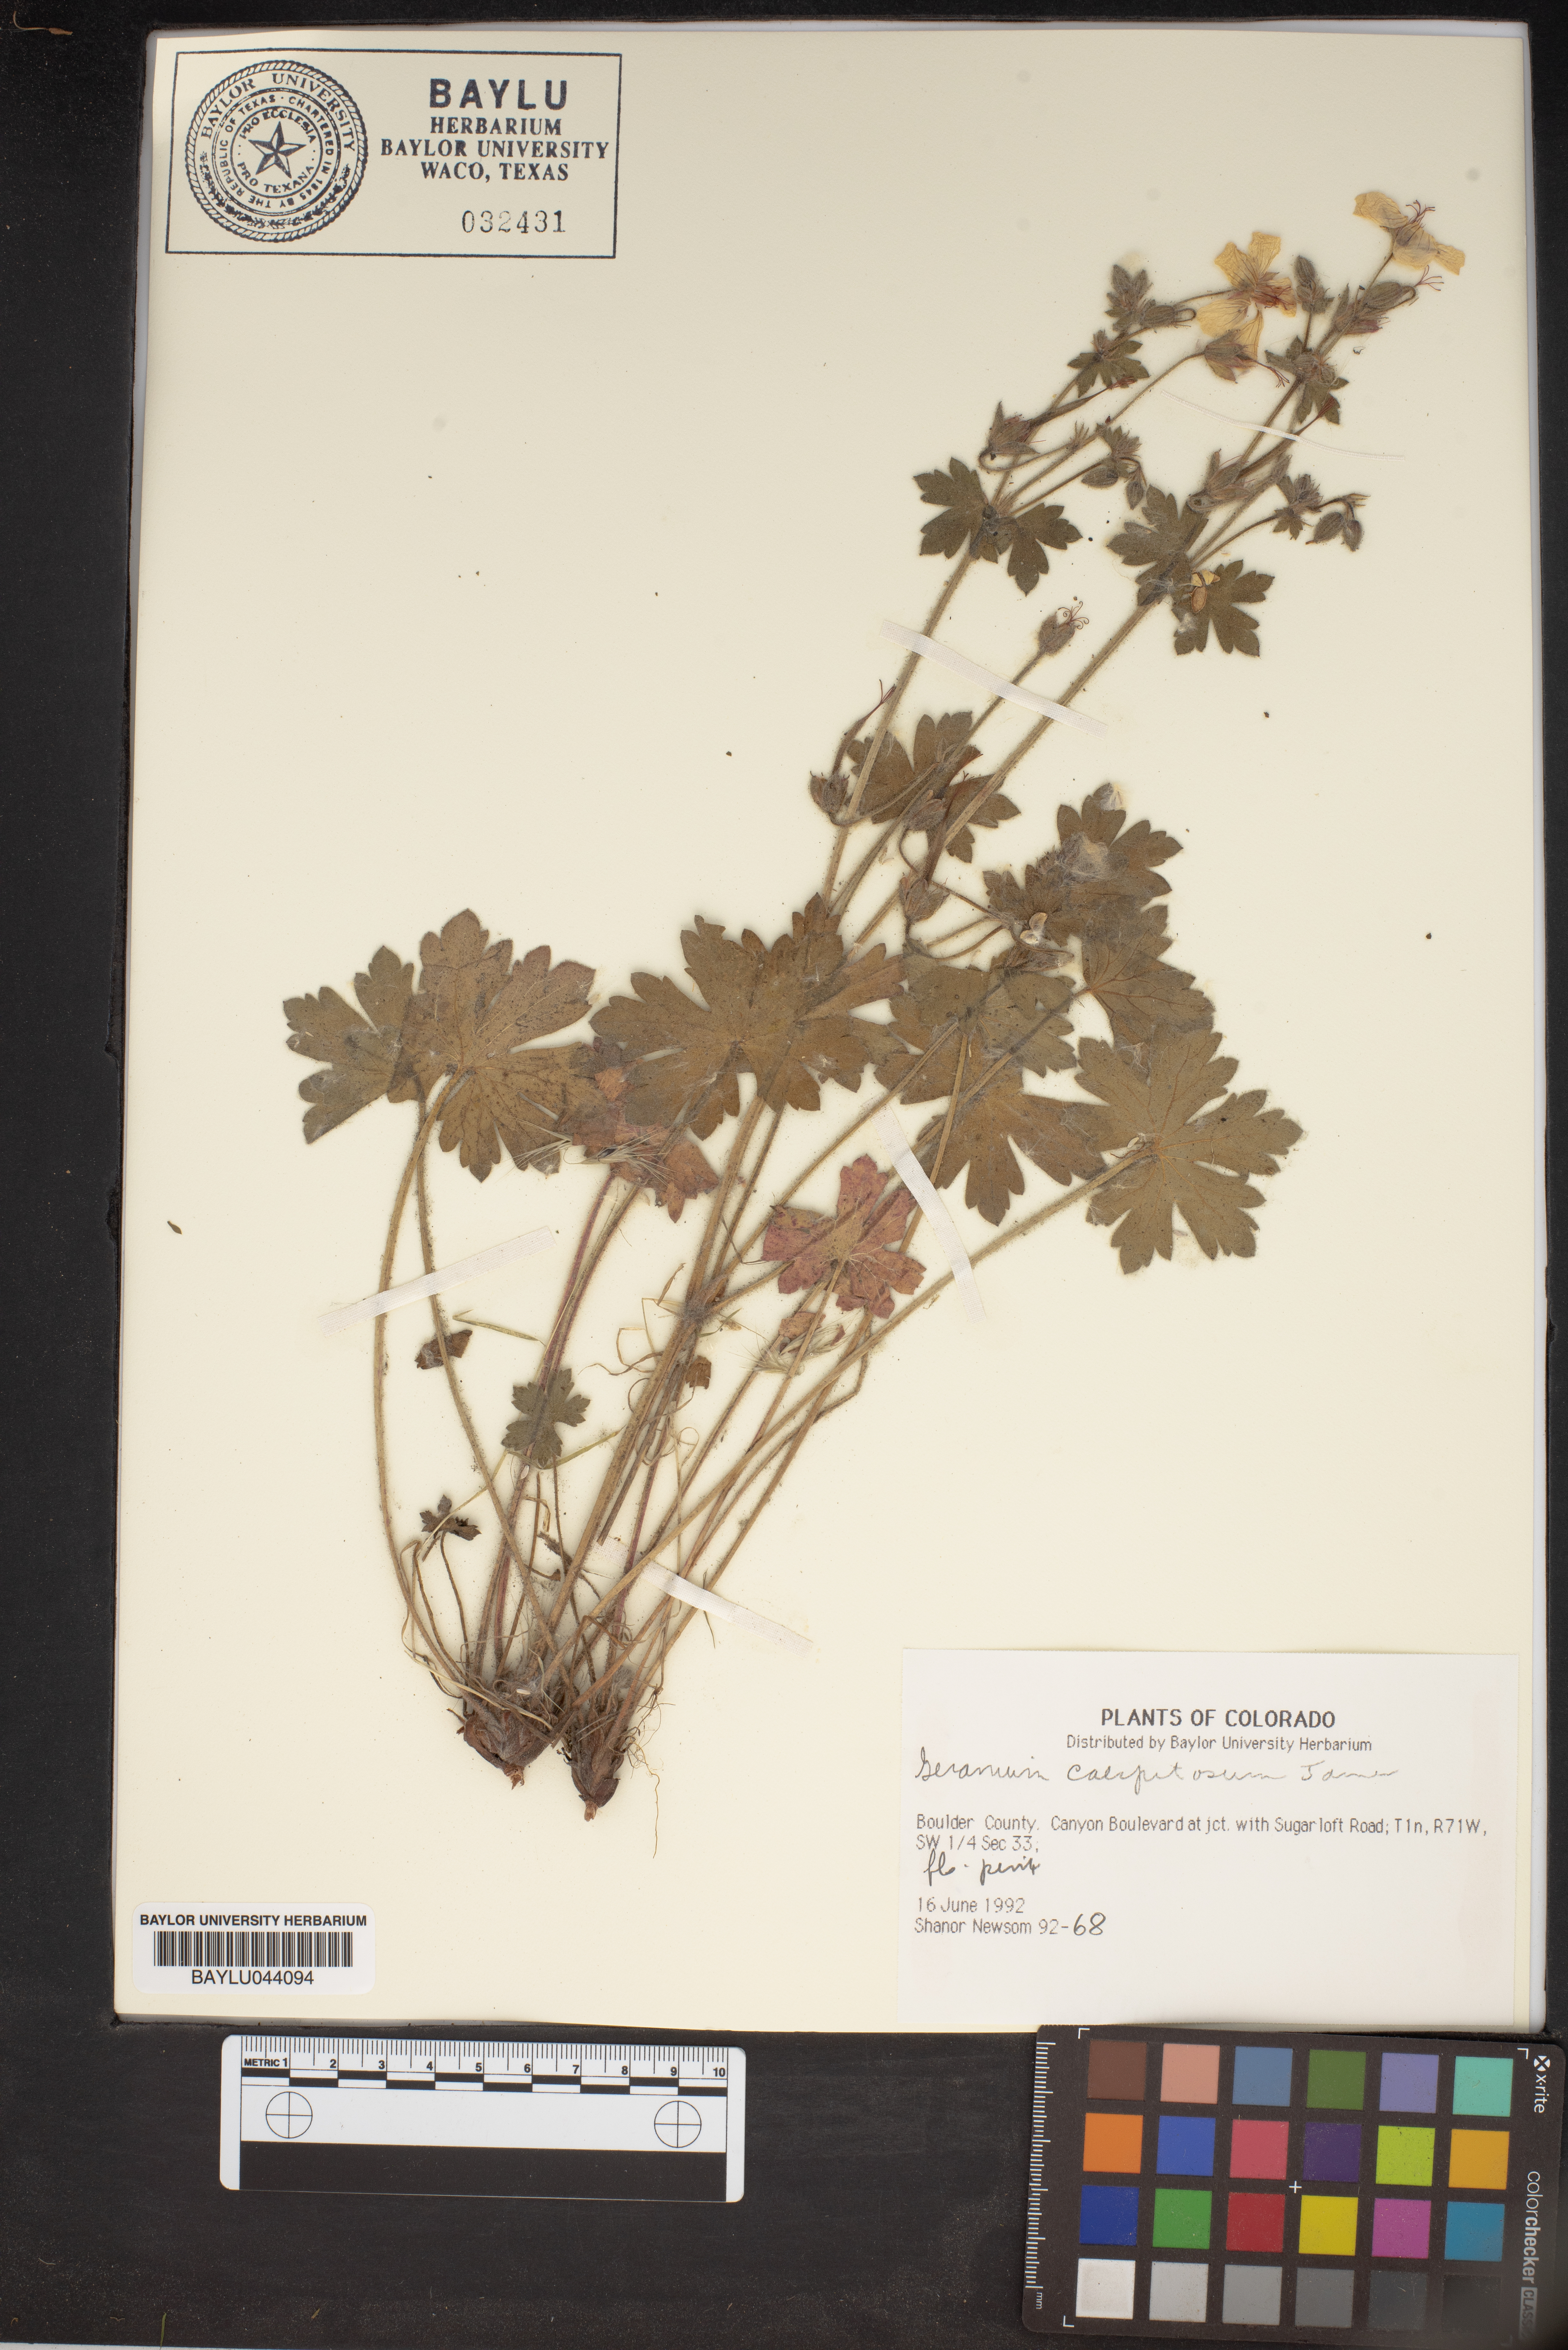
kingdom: Plantae
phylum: Tracheophyta
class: Magnoliopsida
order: Geraniales
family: Geraniaceae
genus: Geranium
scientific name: Geranium caespitosum
